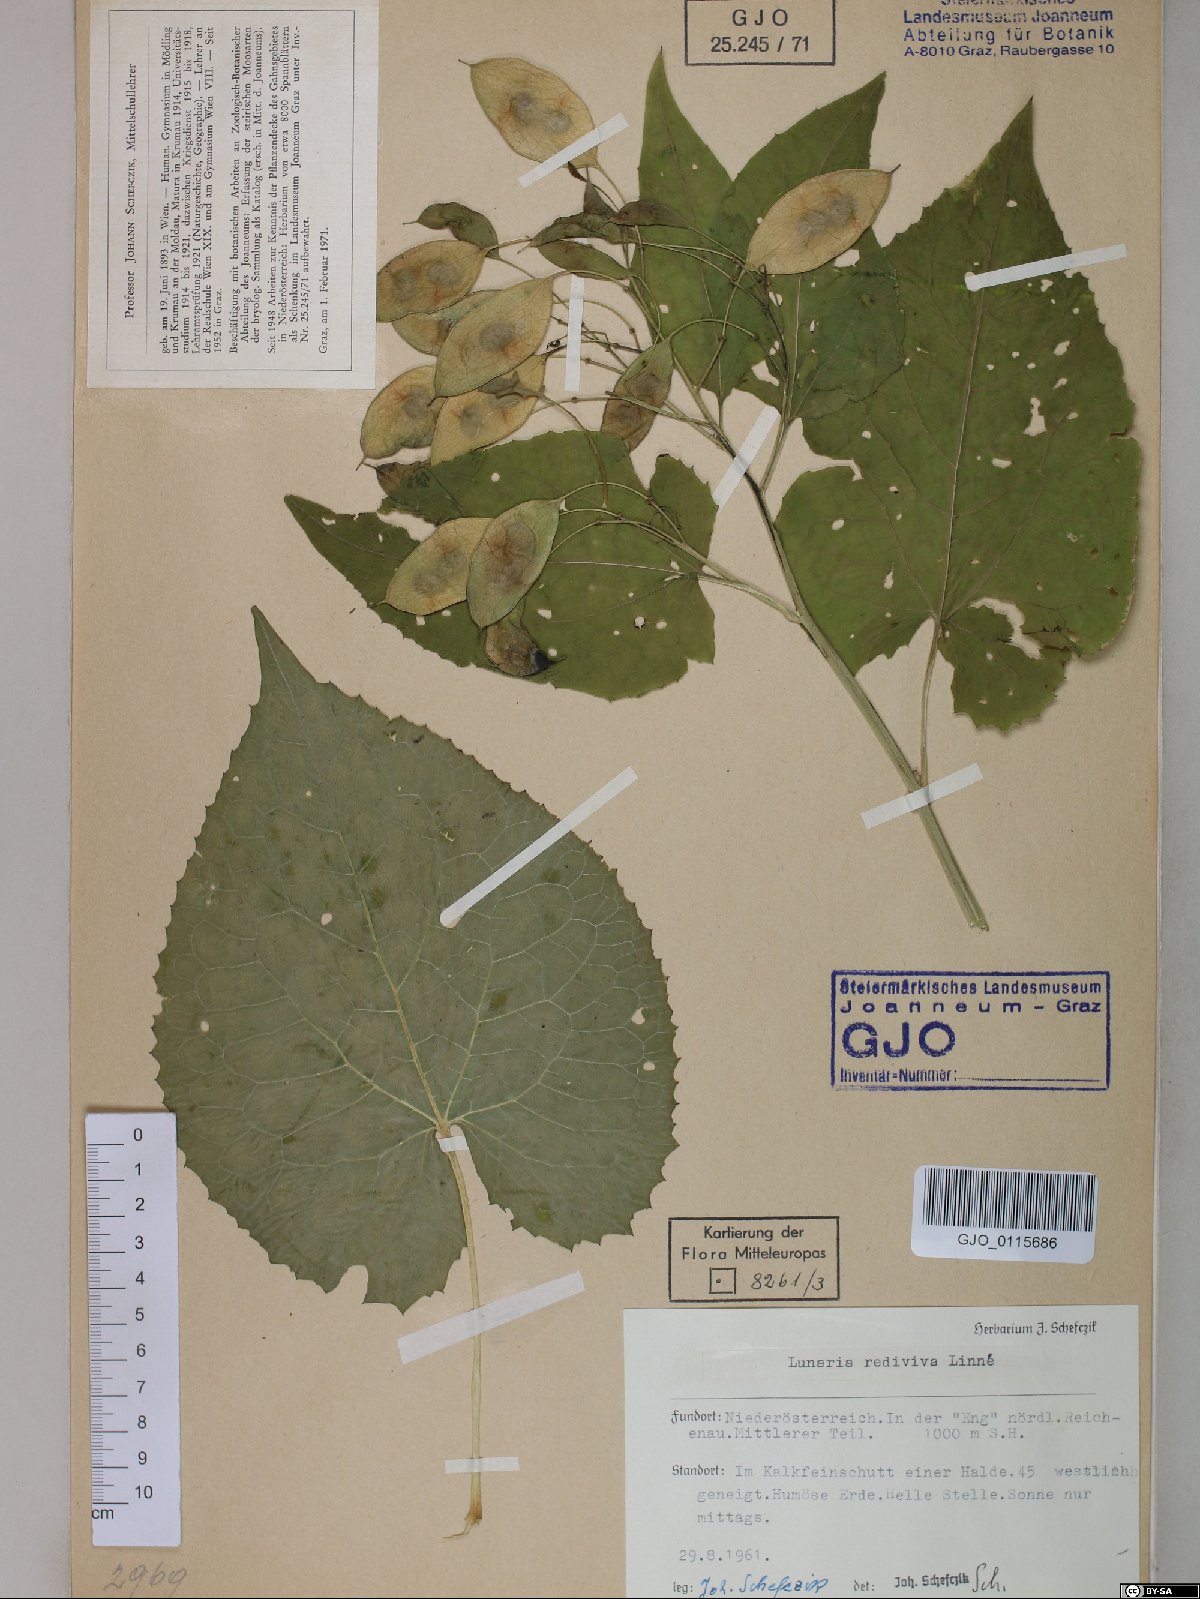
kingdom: Plantae
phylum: Tracheophyta
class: Magnoliopsida
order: Brassicales
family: Brassicaceae
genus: Lunaria
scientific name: Lunaria rediviva
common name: Perennial honesty
